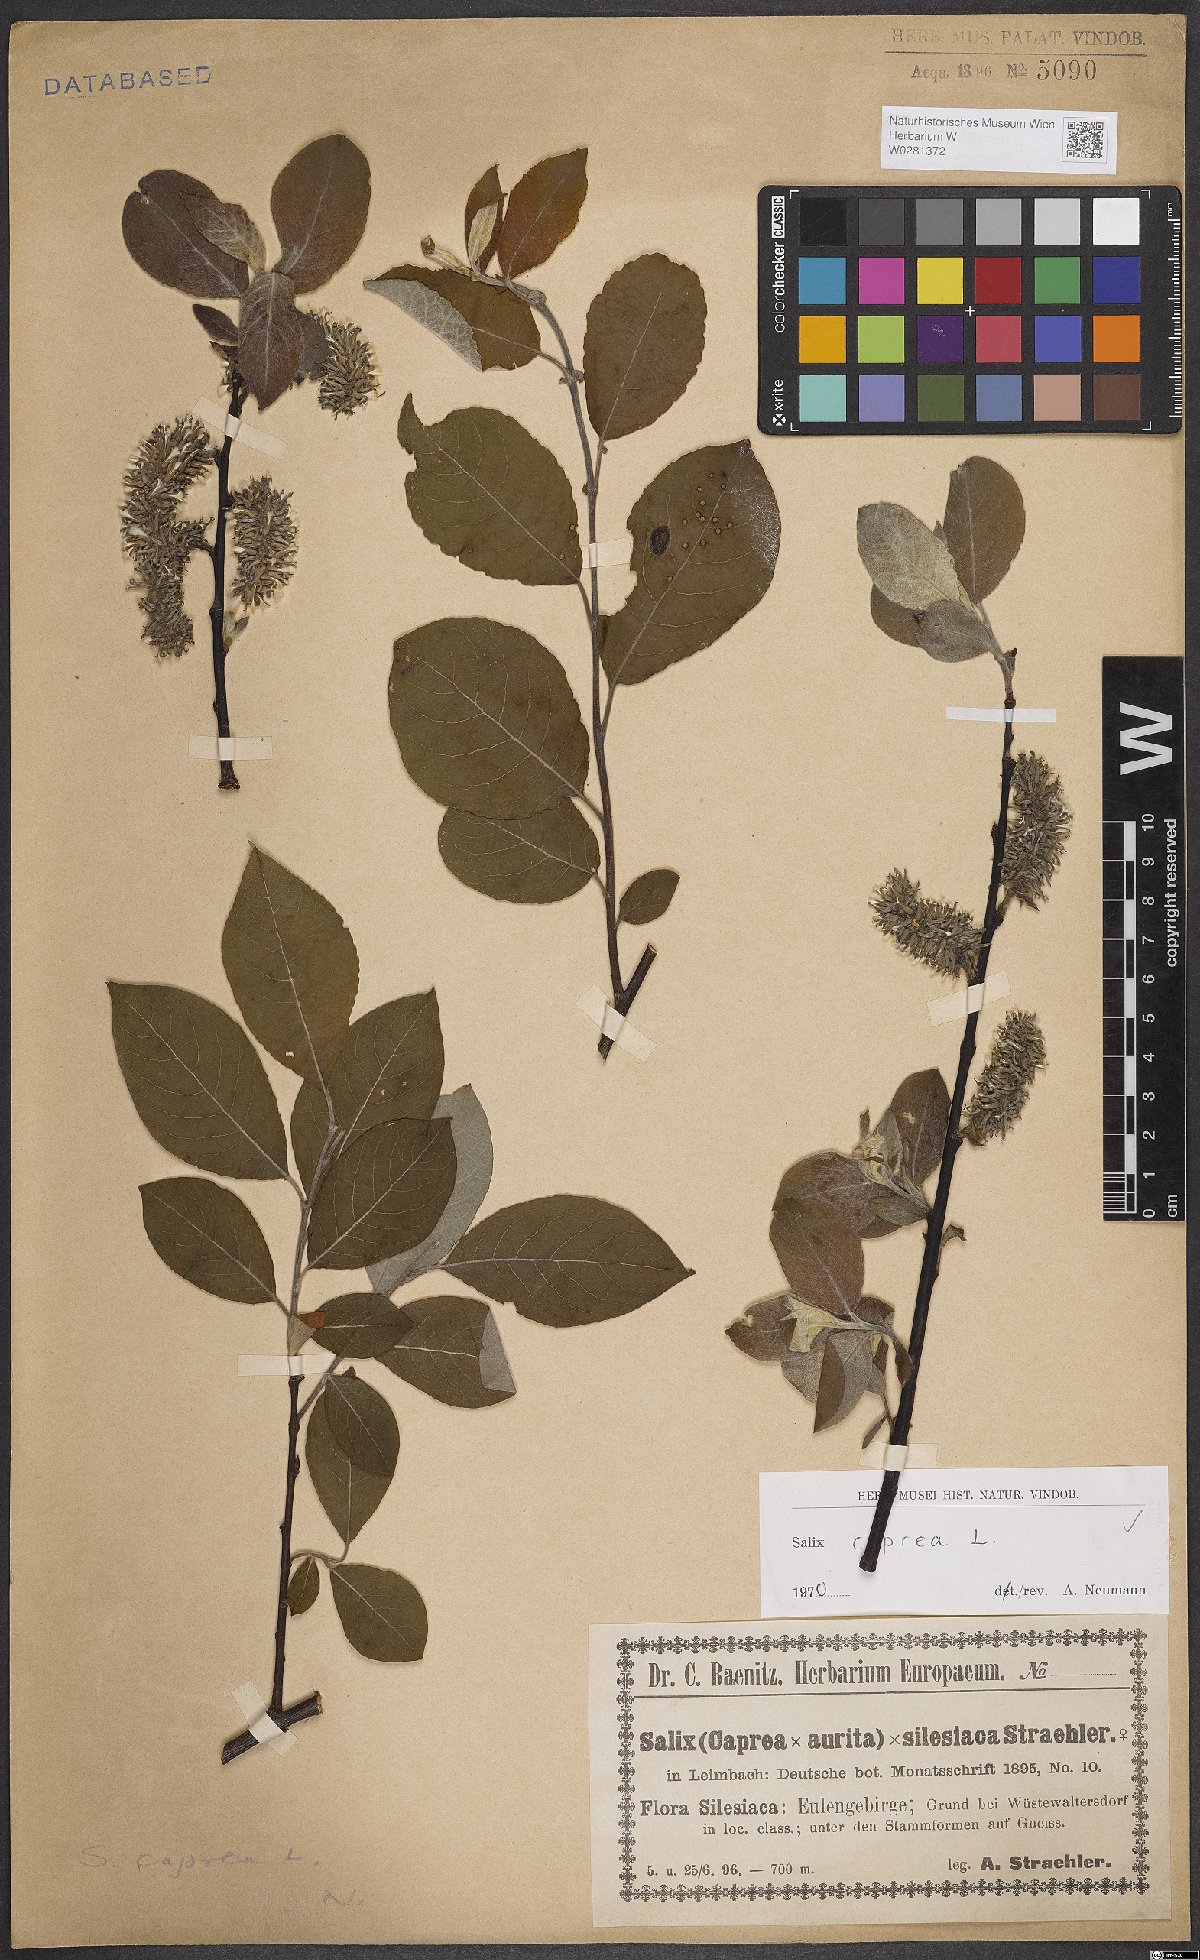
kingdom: Plantae
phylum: Tracheophyta
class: Magnoliopsida
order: Malpighiales
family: Salicaceae
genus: Salix
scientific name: Salix caprea
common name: Goat willow
